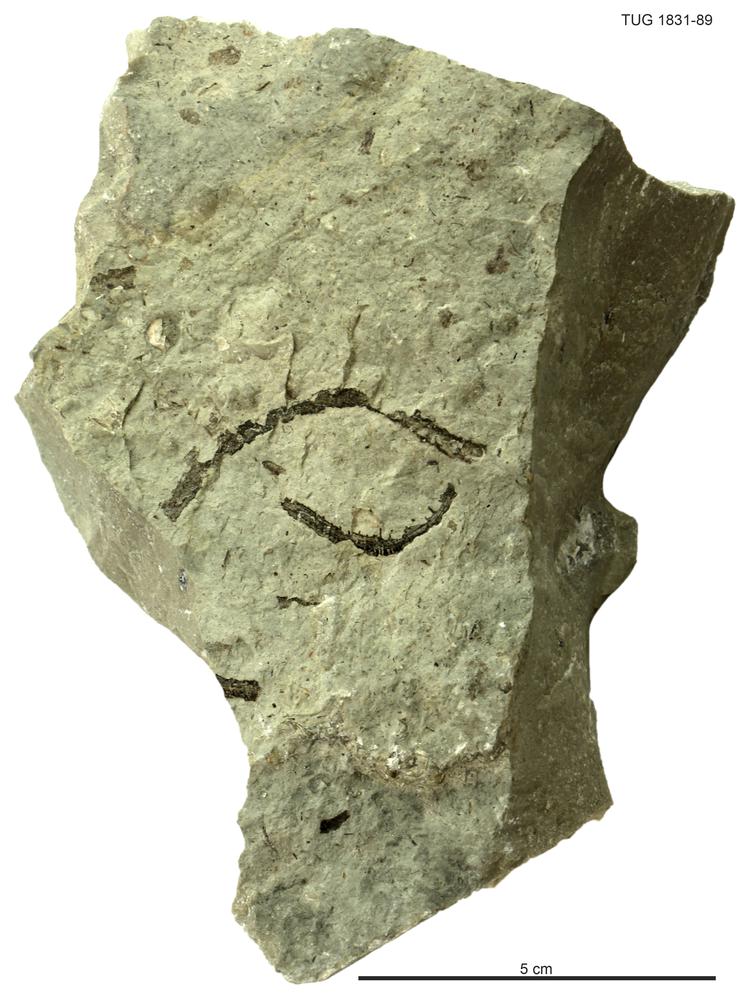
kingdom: Animalia
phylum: Echinodermata
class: Crinoidea
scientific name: Crinoidea
